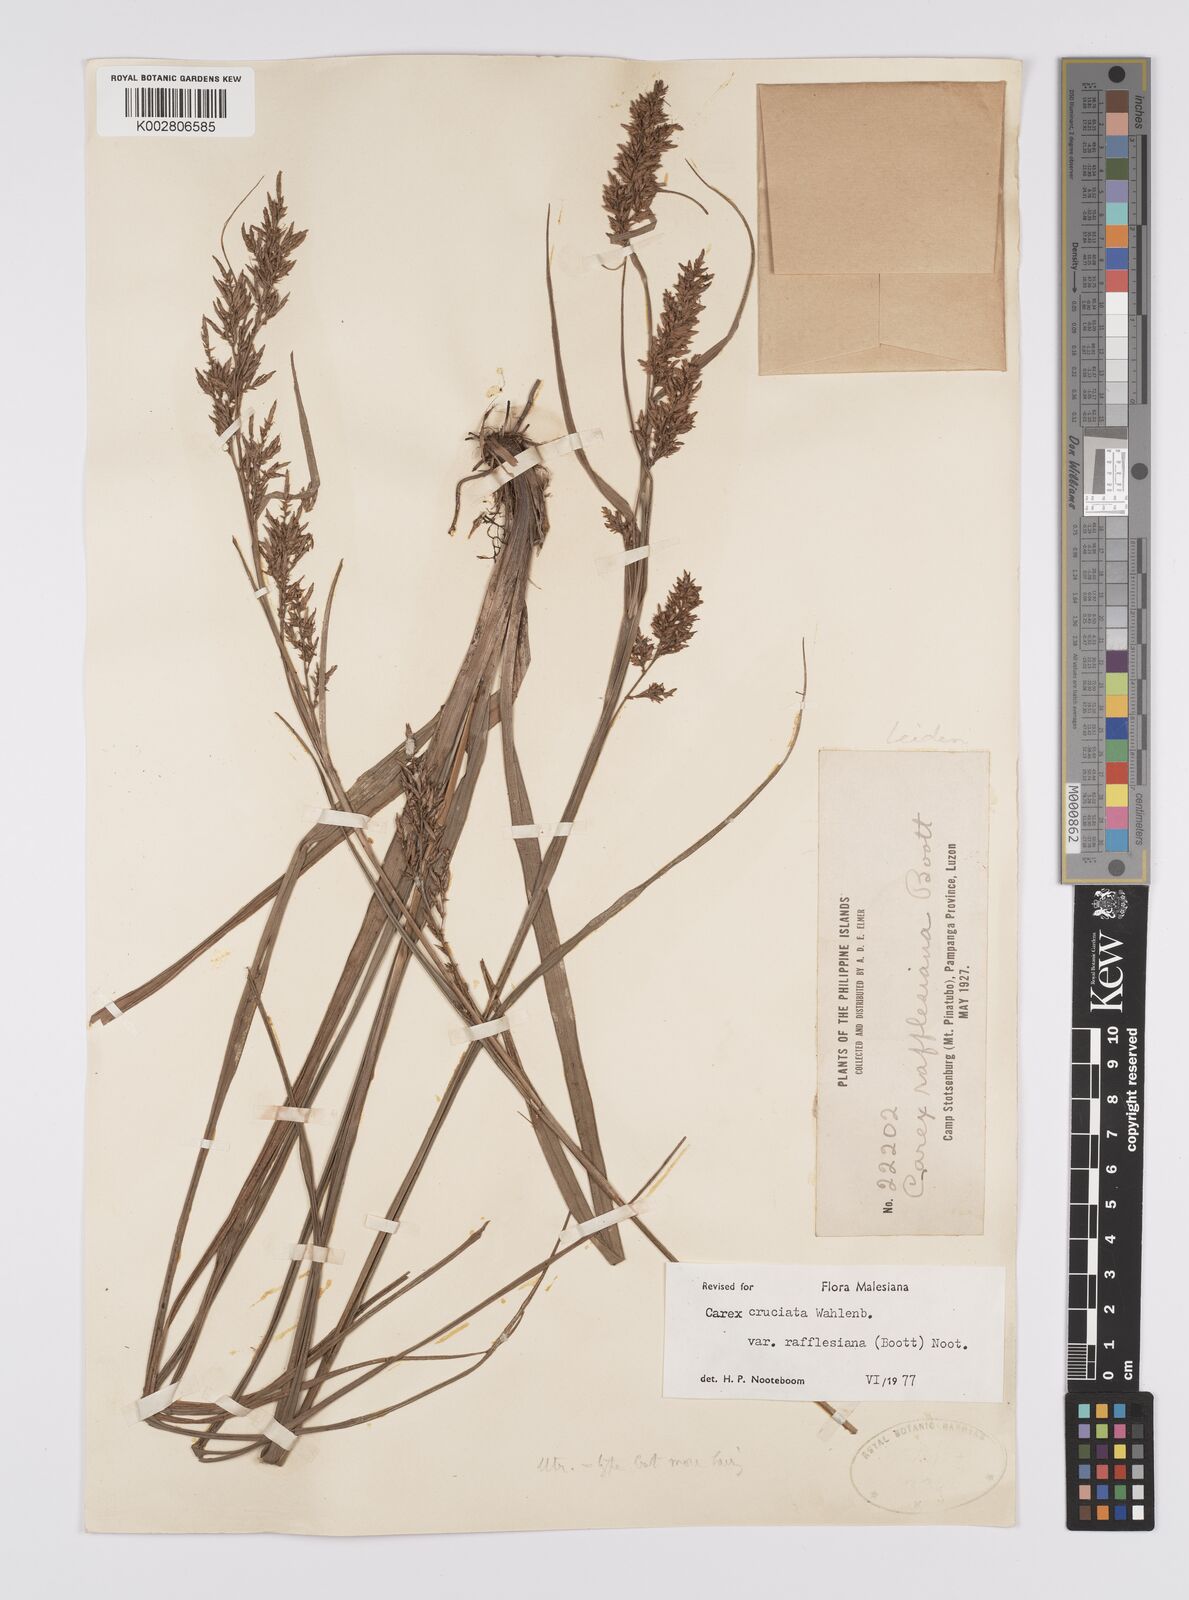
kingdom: Plantae
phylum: Tracheophyta
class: Liliopsida
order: Poales
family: Cyperaceae
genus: Carex
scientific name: Carex rafflesiana
